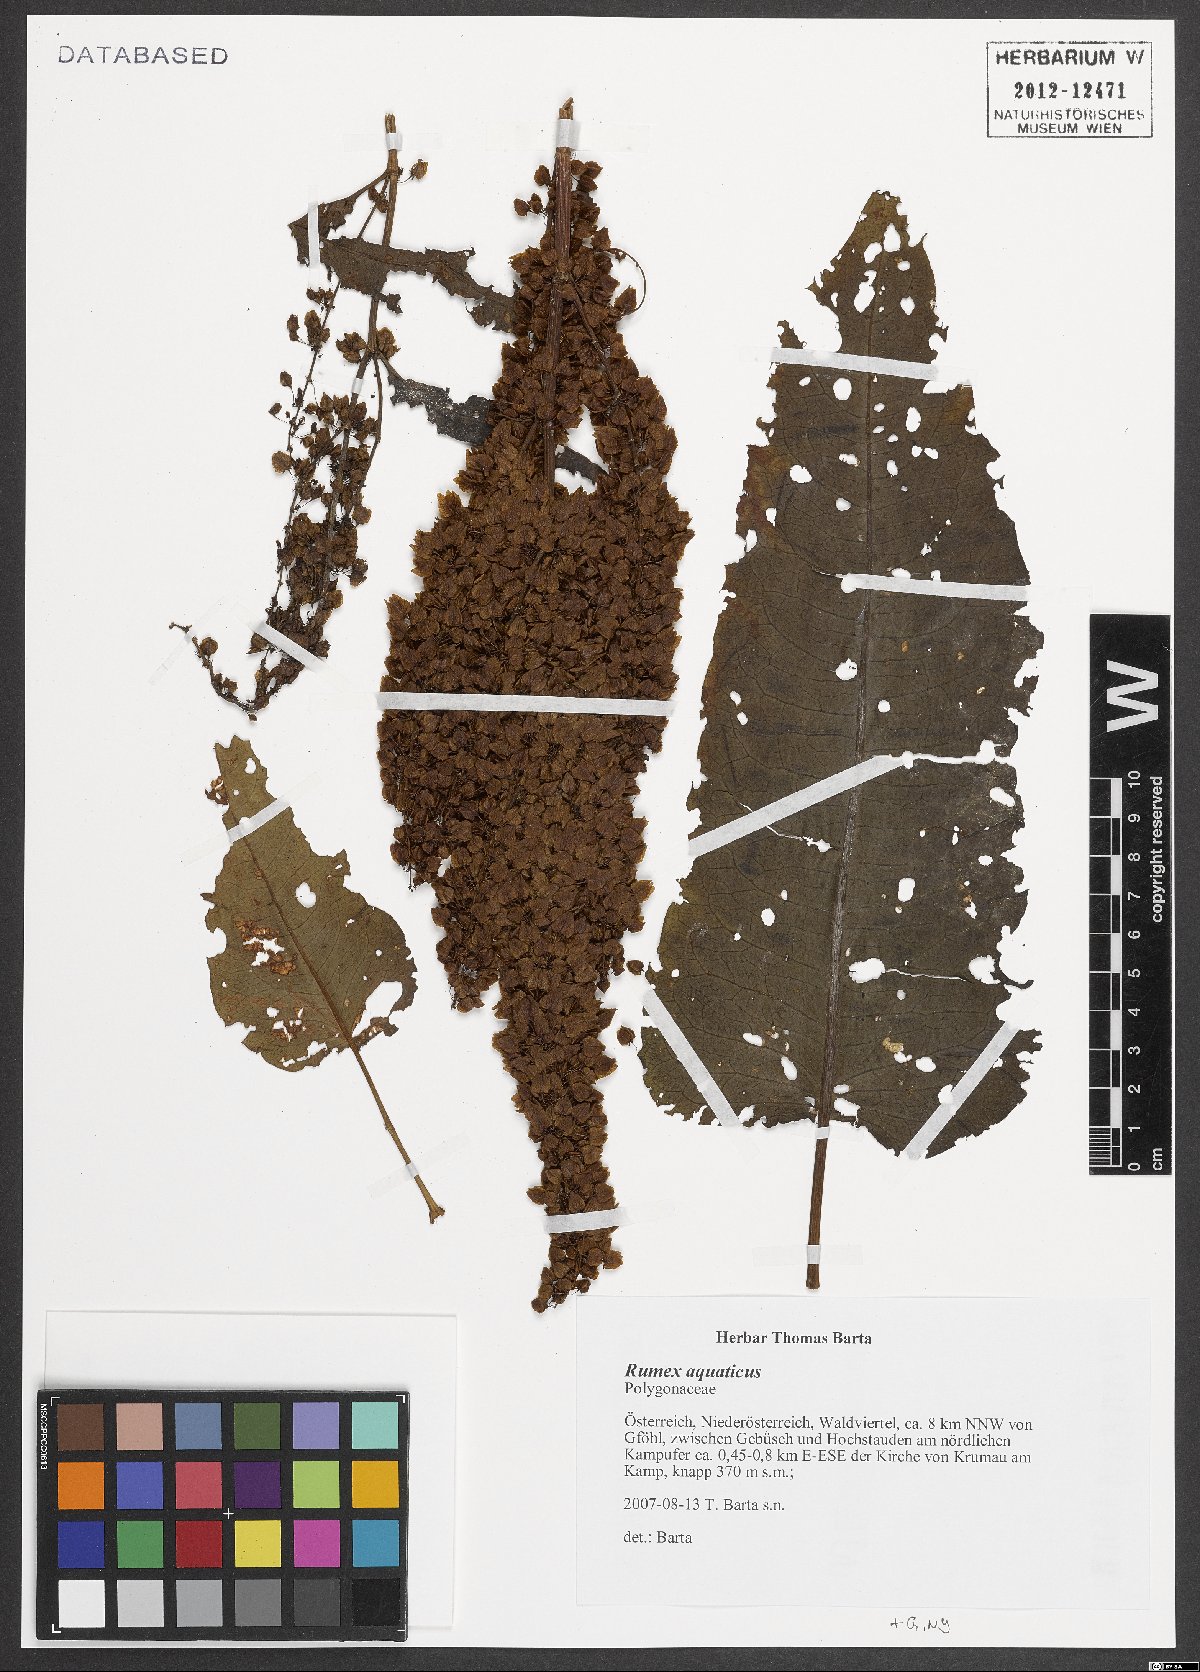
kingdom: Plantae
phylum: Tracheophyta
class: Magnoliopsida
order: Caryophyllales
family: Polygonaceae
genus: Rumex
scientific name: Rumex aquaticus
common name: Scottish dock
